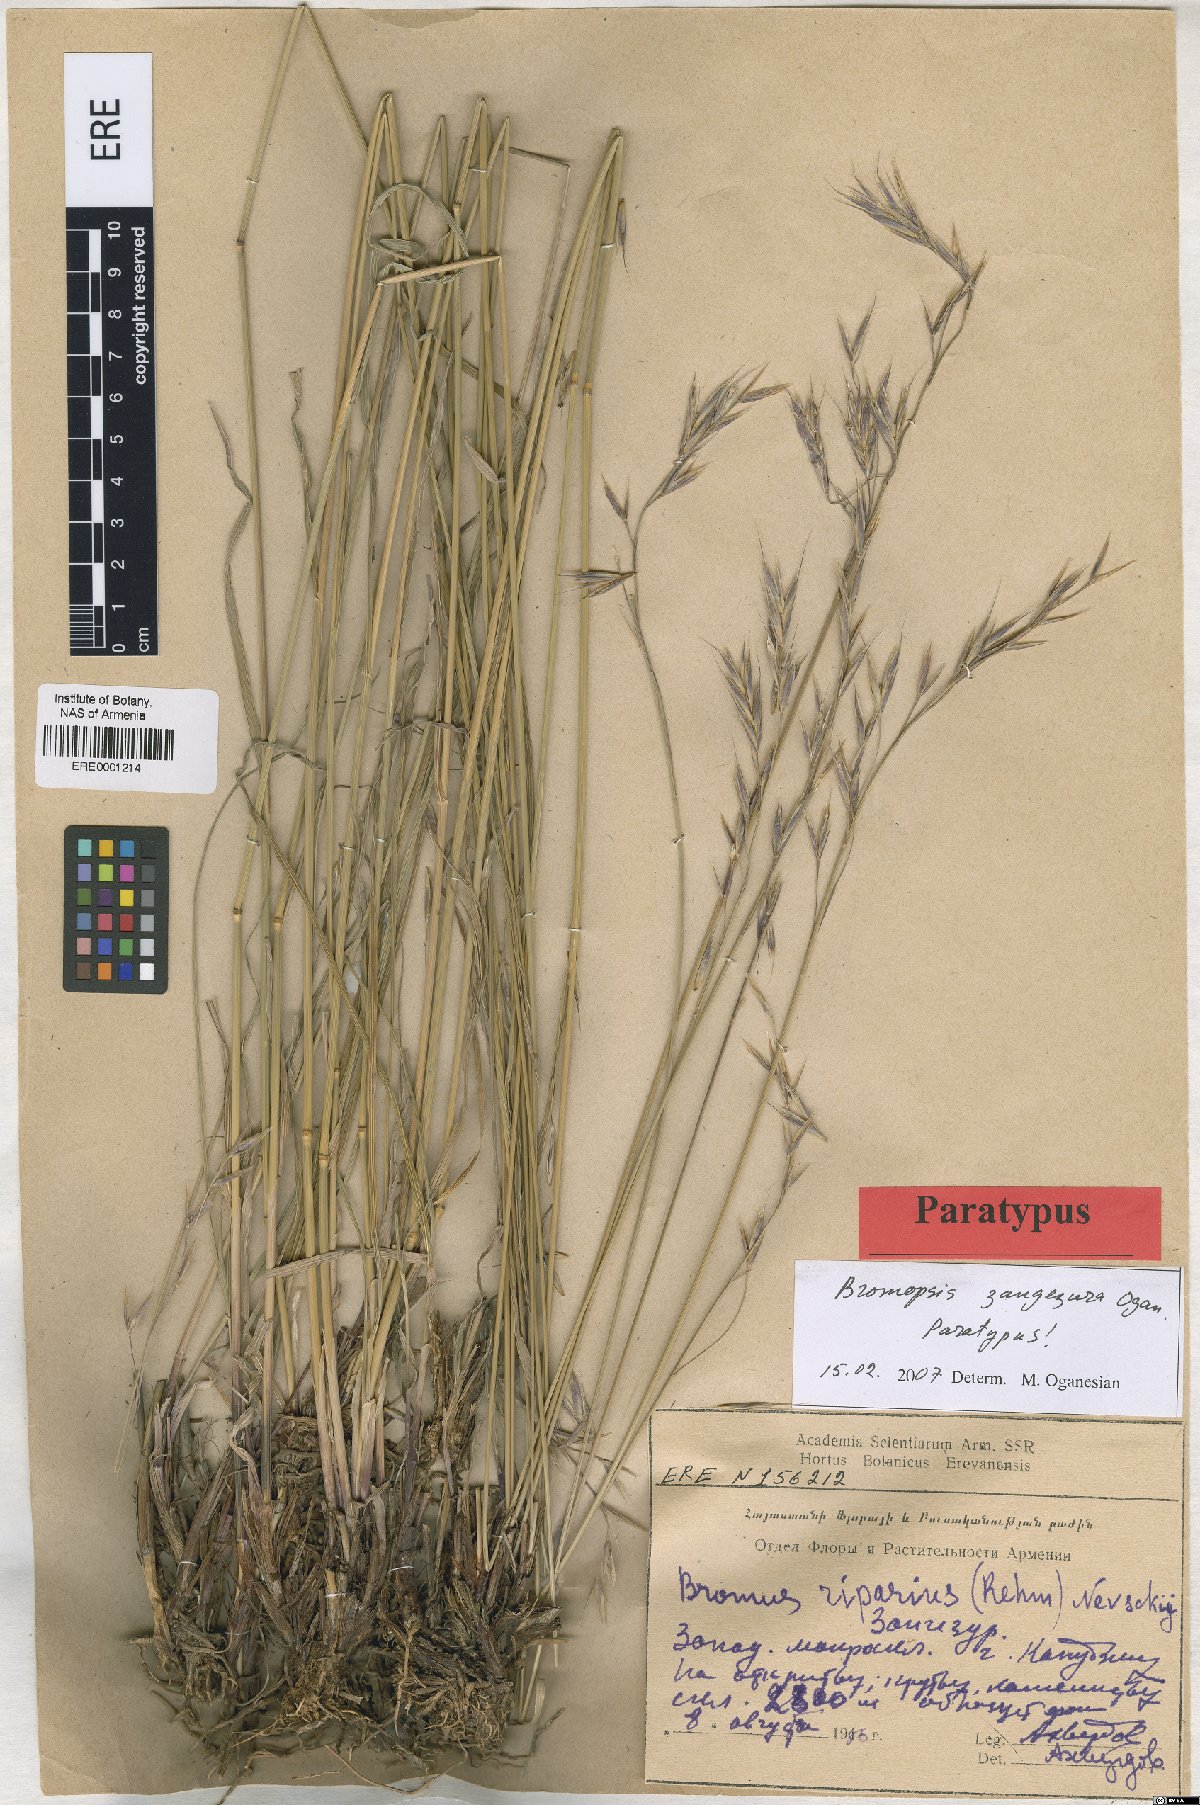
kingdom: Plantae
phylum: Tracheophyta
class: Liliopsida
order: Poales
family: Poaceae
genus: Bromus
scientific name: Bromus erectus
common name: Erect brome
